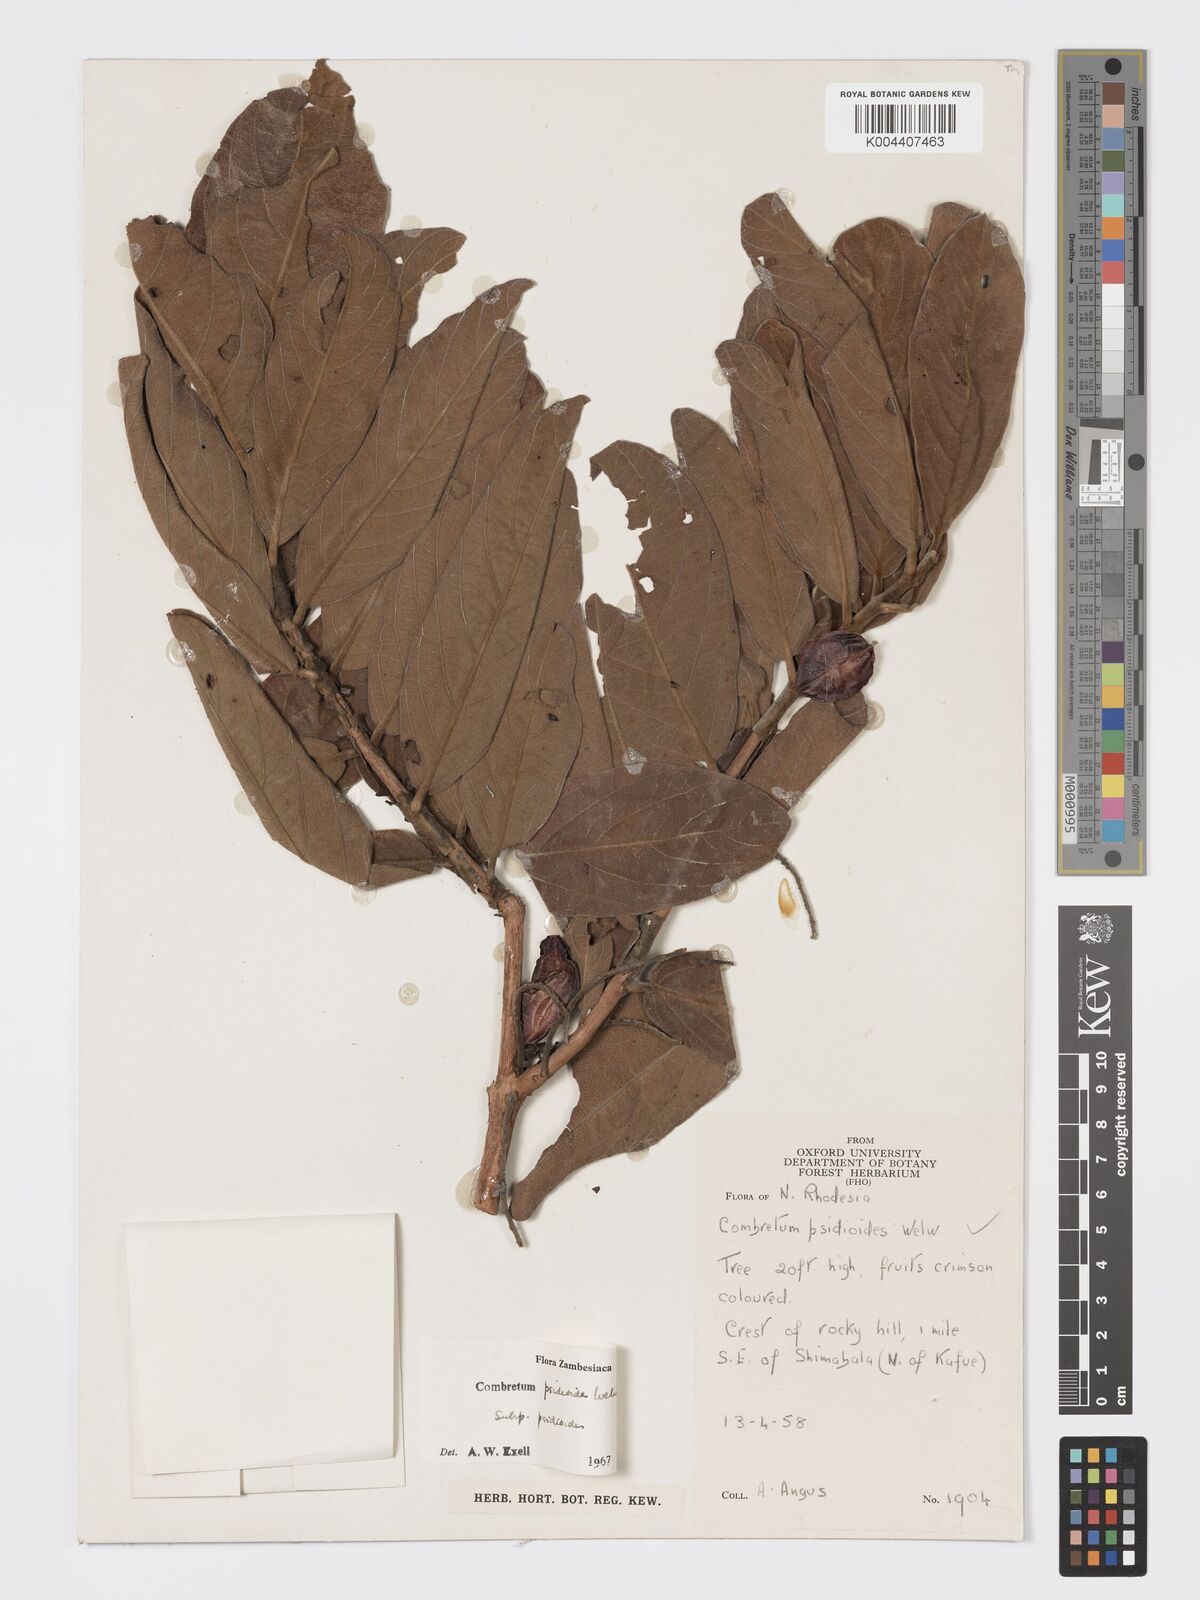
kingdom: Plantae
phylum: Tracheophyta
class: Magnoliopsida
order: Myrtales
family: Combretaceae
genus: Combretum
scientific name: Combretum psidioides
